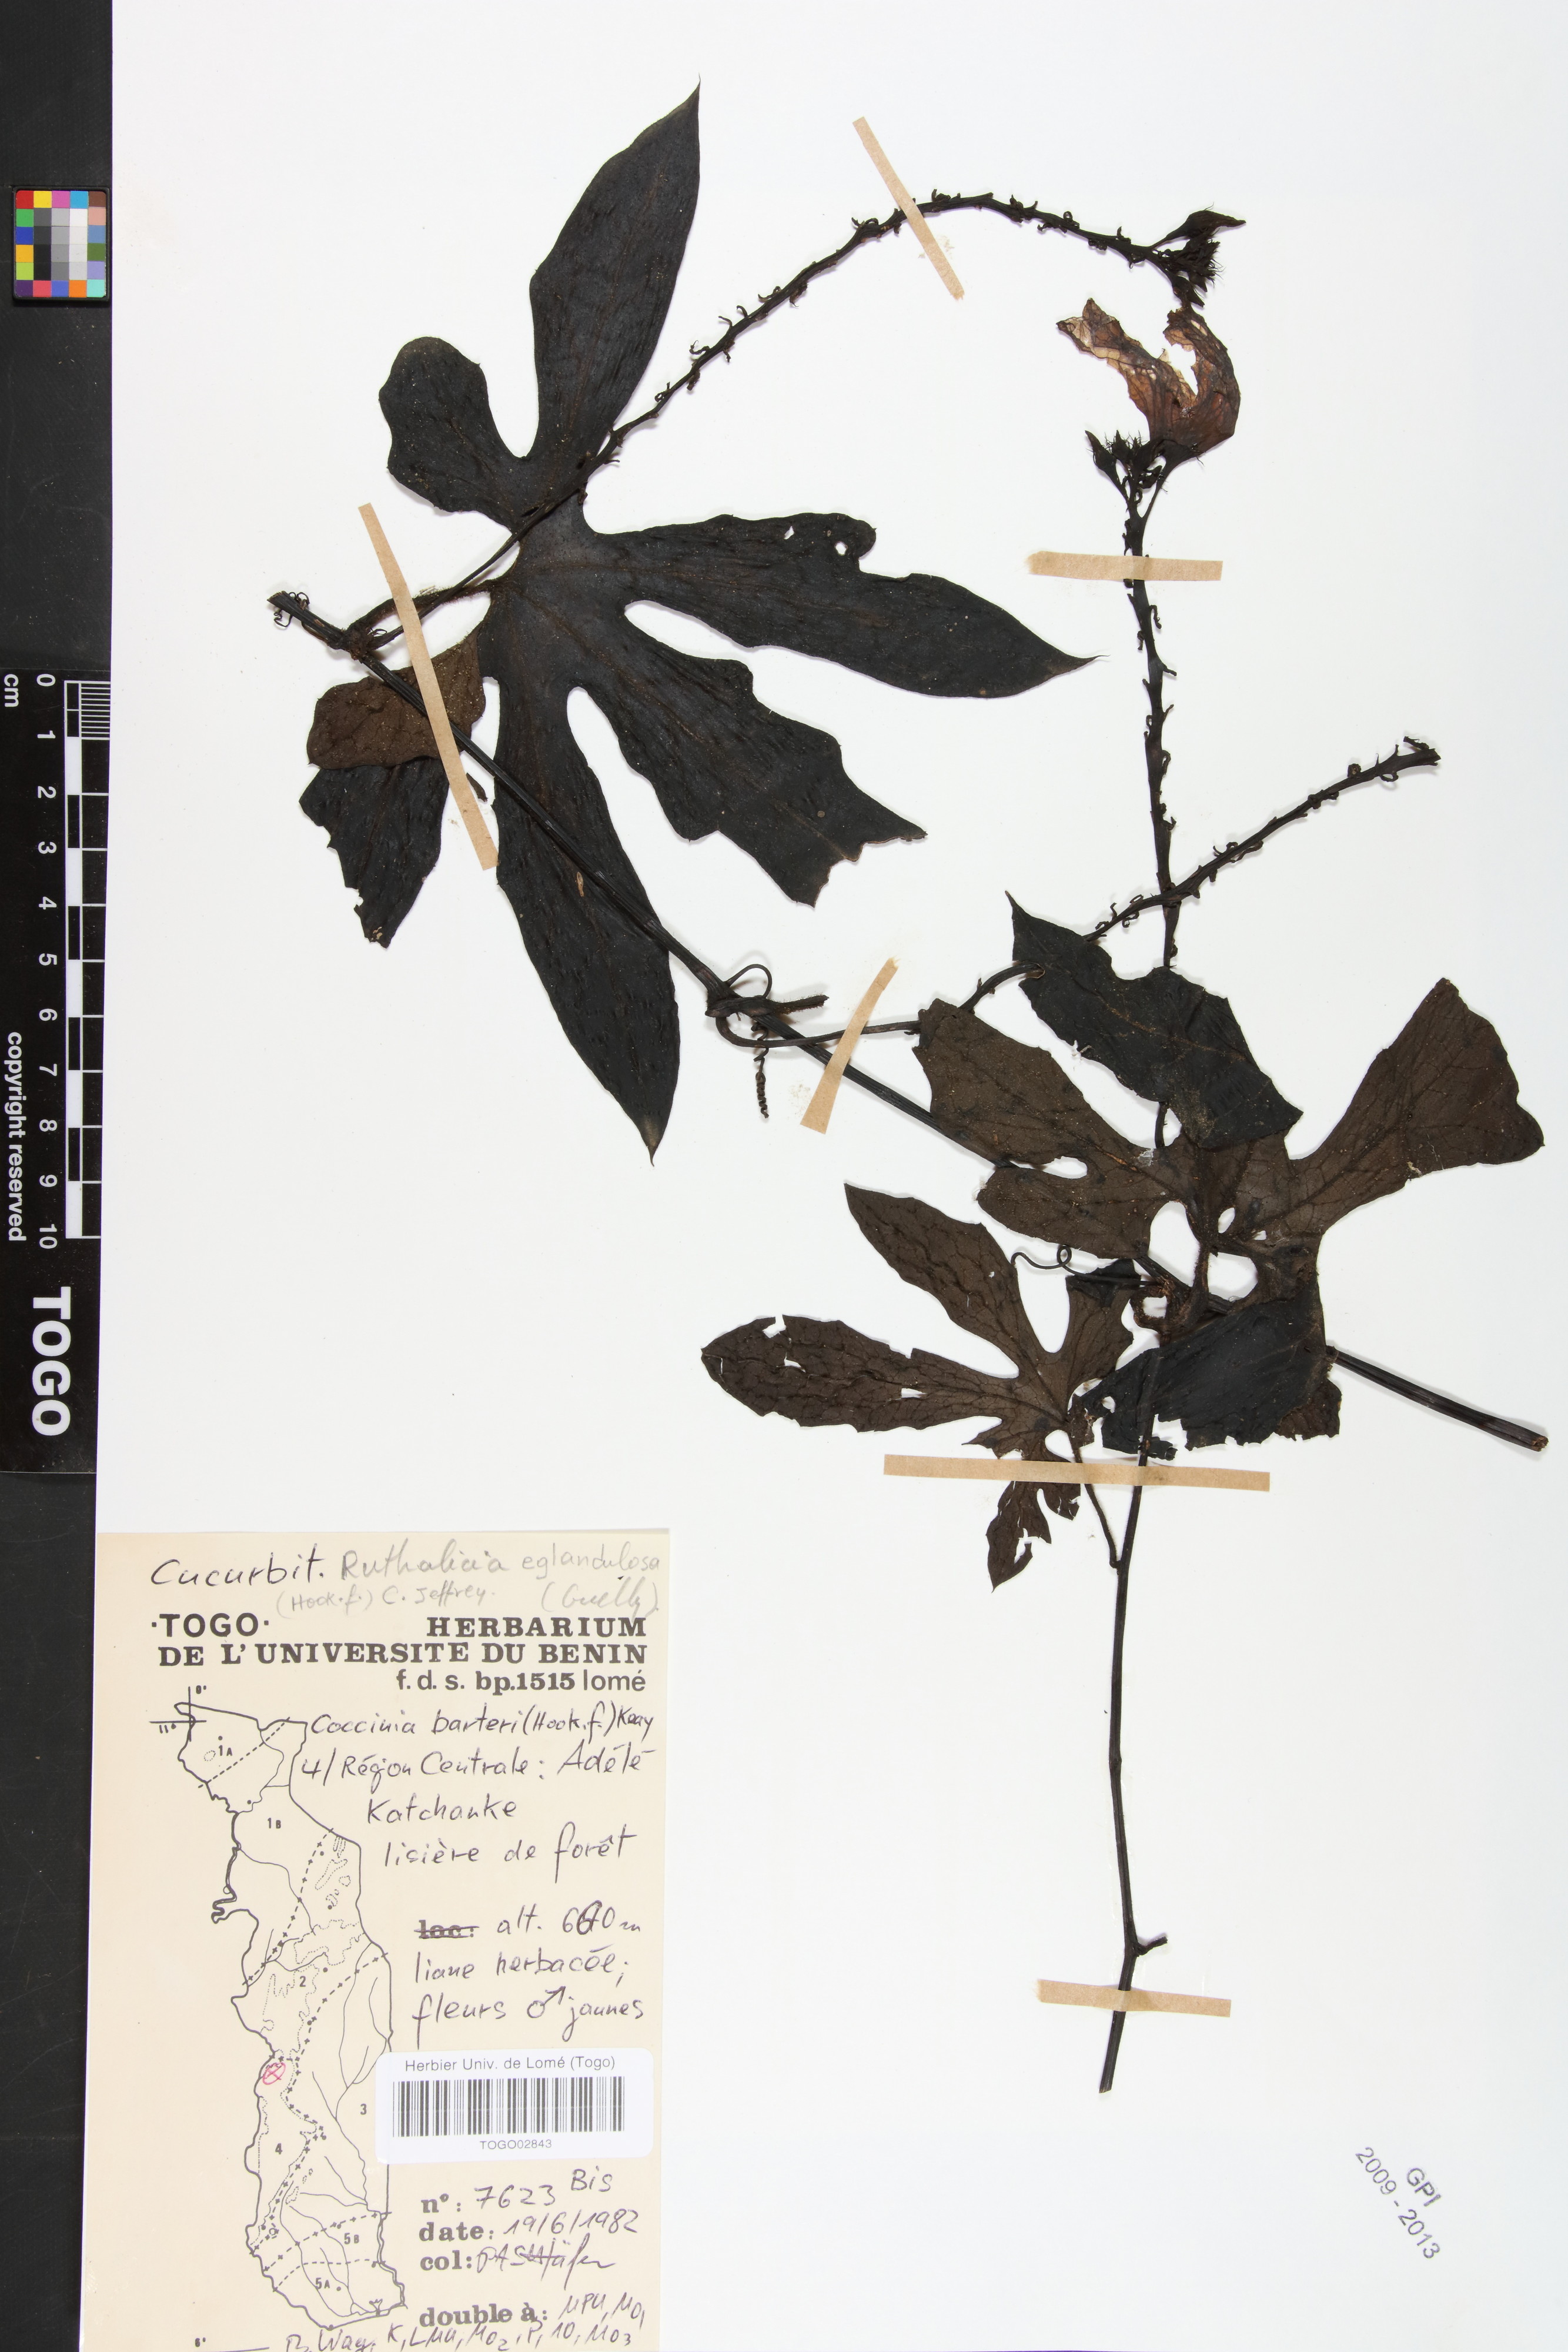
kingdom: Plantae
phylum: Tracheophyta
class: Magnoliopsida
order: Cucurbitales
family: Cucurbitaceae
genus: Ruthalicia
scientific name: Ruthalicia eglandulosa
